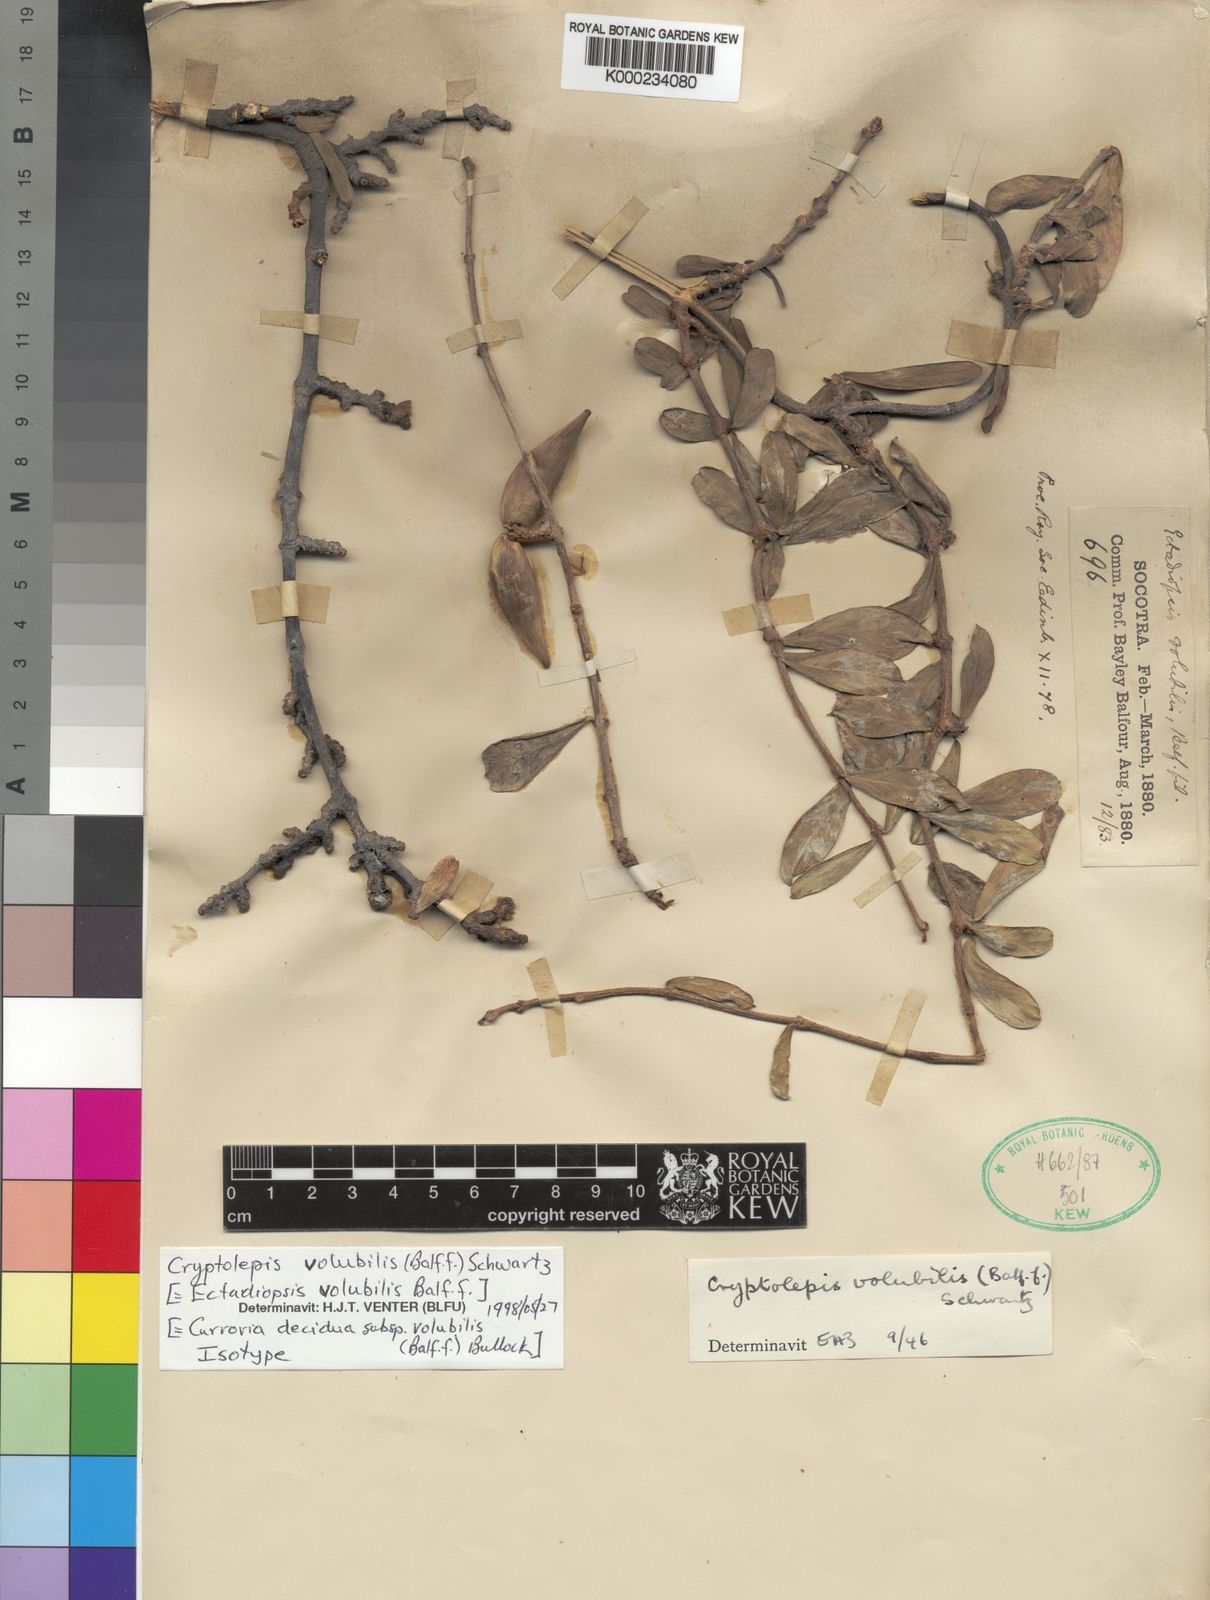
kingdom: Plantae
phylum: Tracheophyta
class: Magnoliopsida
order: Gentianales
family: Apocynaceae
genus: Cryptolepis
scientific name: Cryptolepis decidua
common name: Jackalplant
